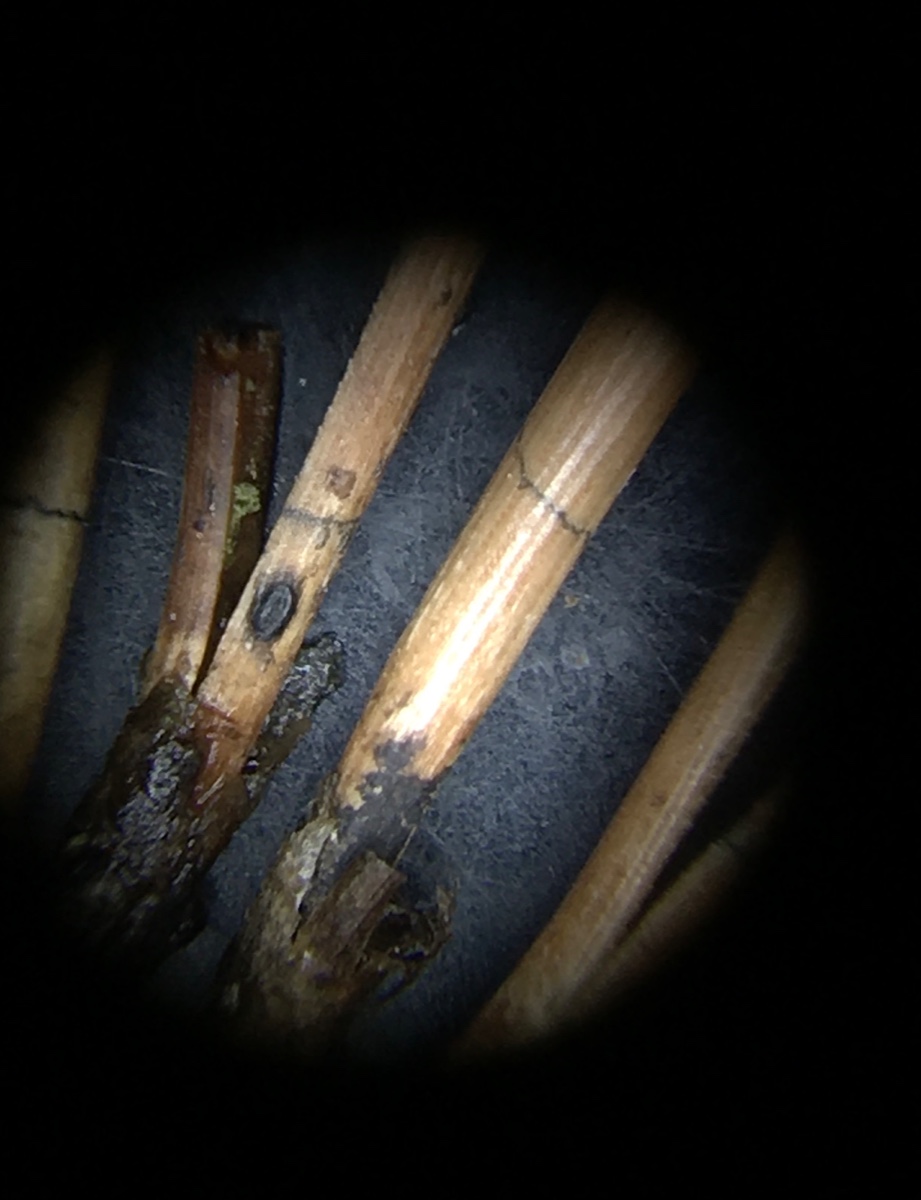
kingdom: Fungi
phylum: Ascomycota
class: Leotiomycetes
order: Rhytismatales
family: Rhytismataceae
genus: Lophodermium
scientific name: Lophodermium pinastri
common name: fyrre-fureplet
